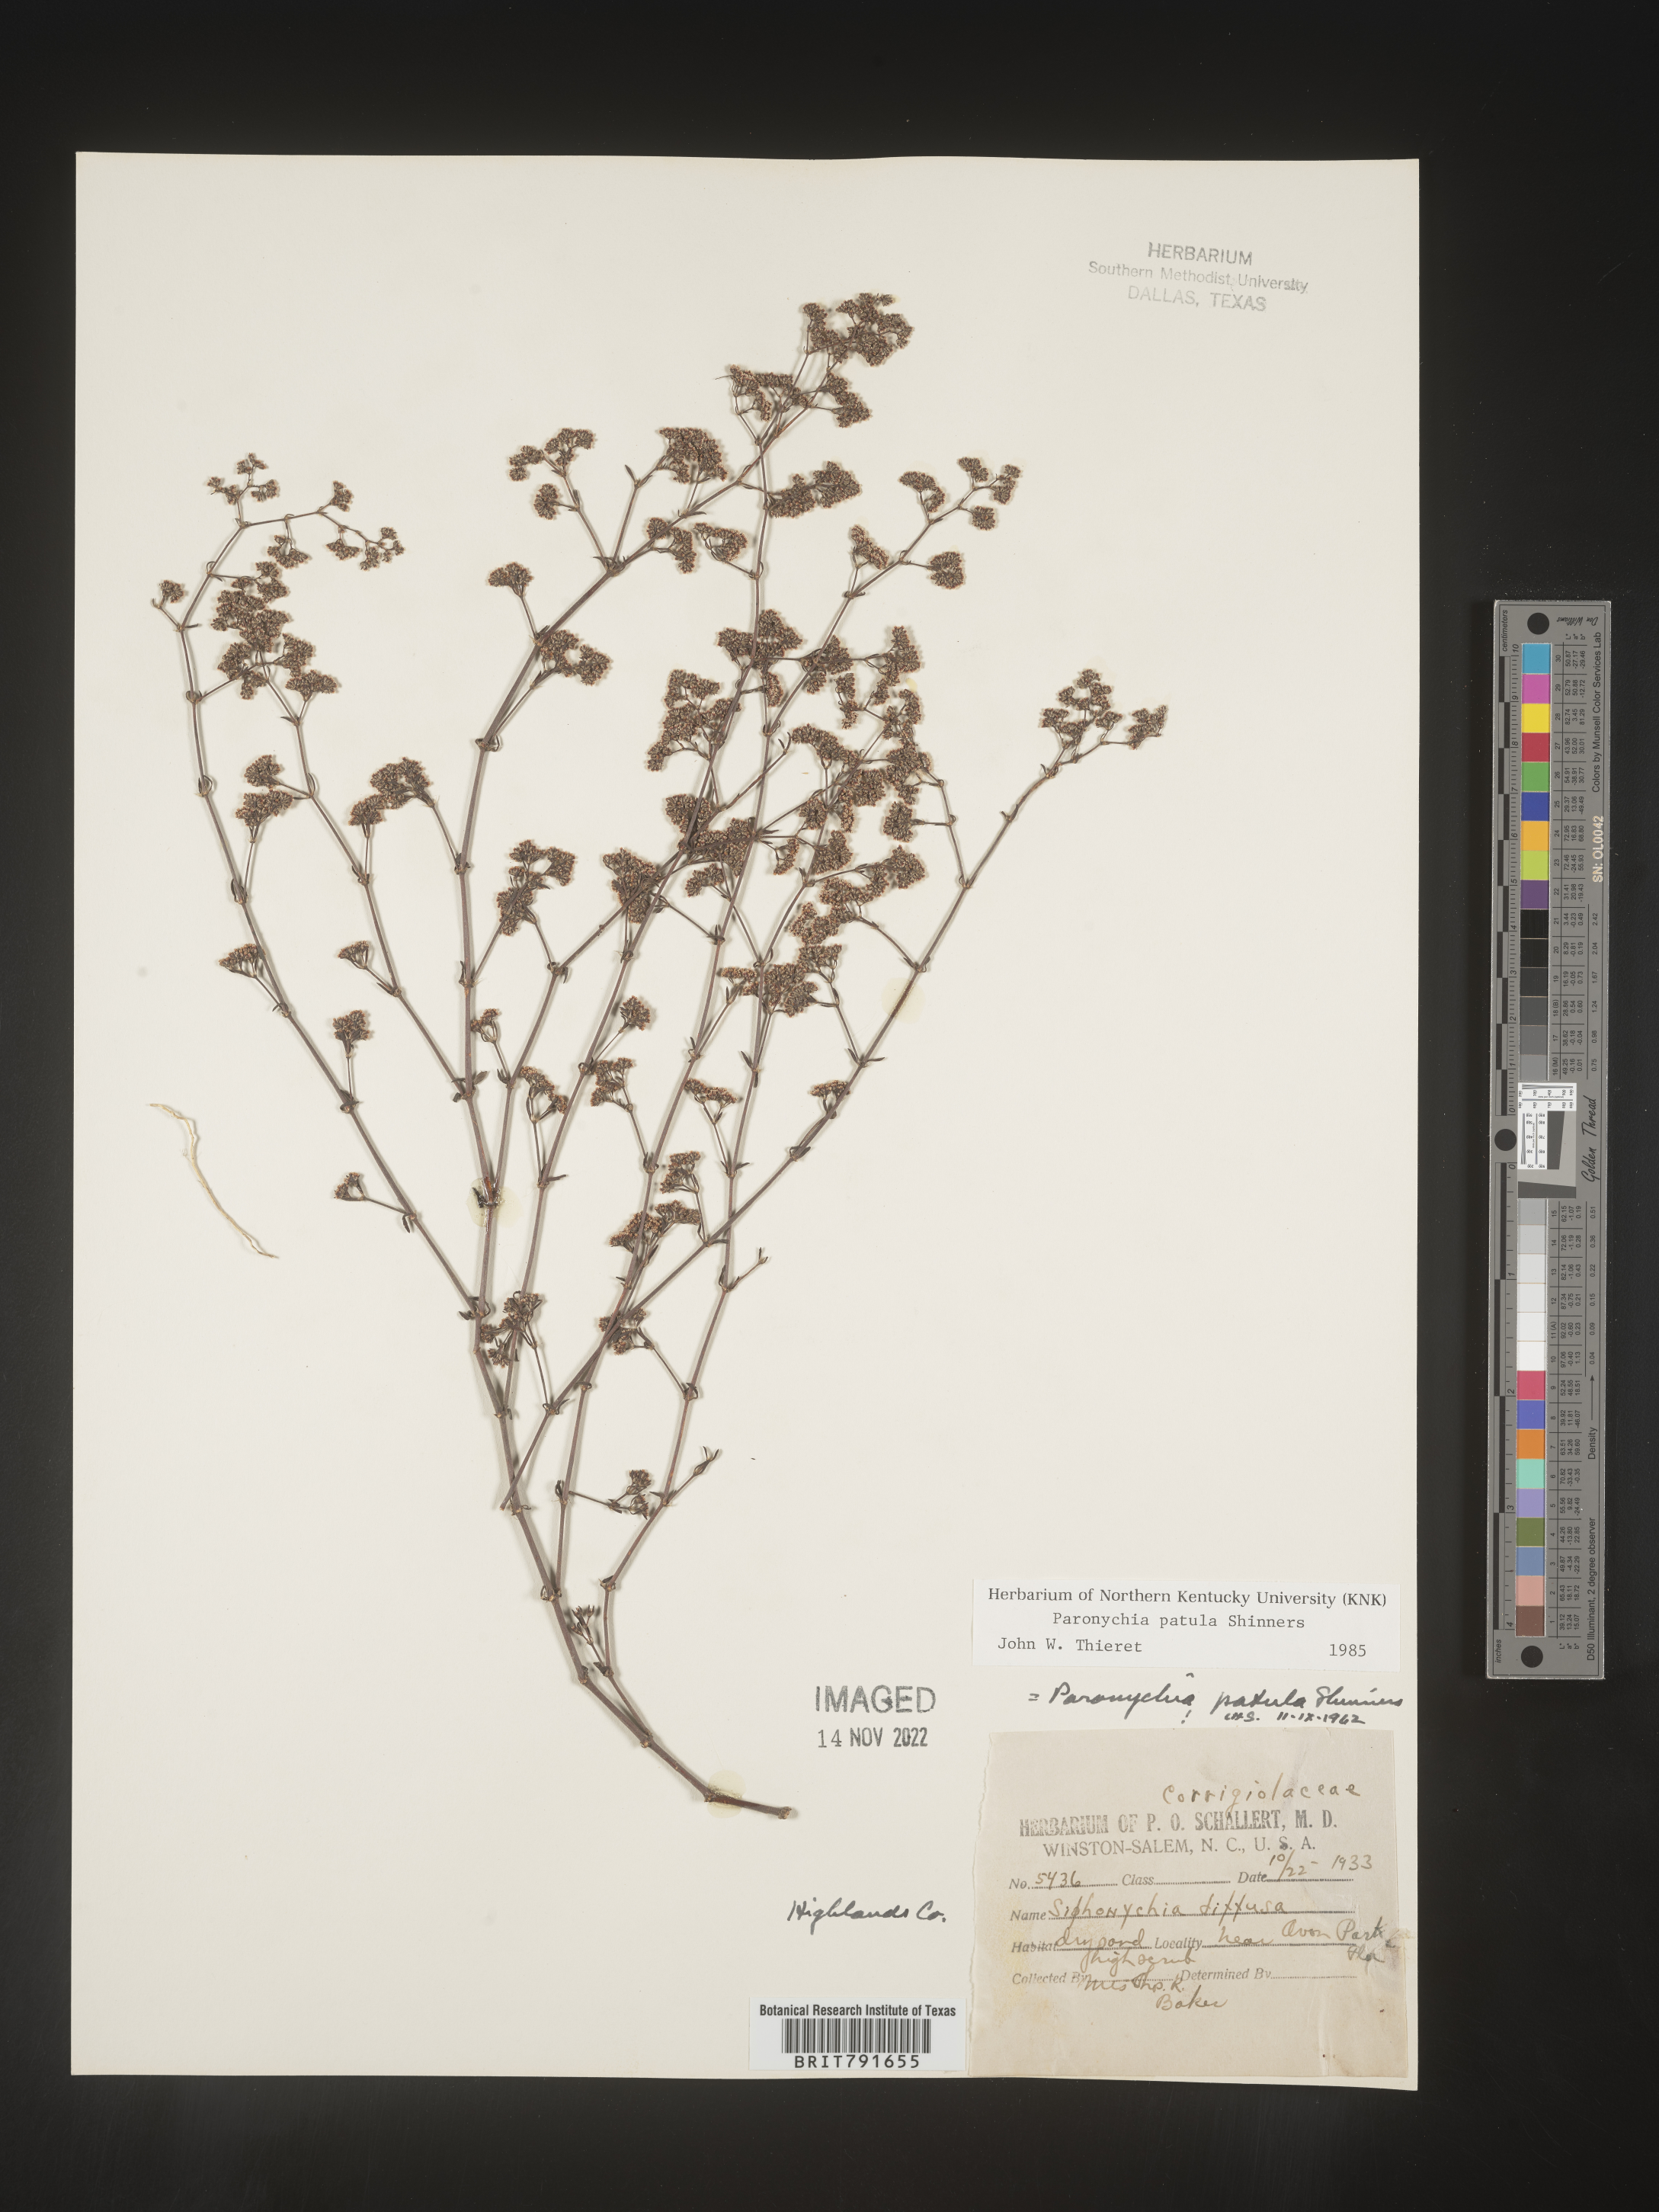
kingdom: Plantae
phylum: Tracheophyta
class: Magnoliopsida
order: Caryophyllales
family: Caryophyllaceae
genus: Paronychia
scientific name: Paronychia patula
